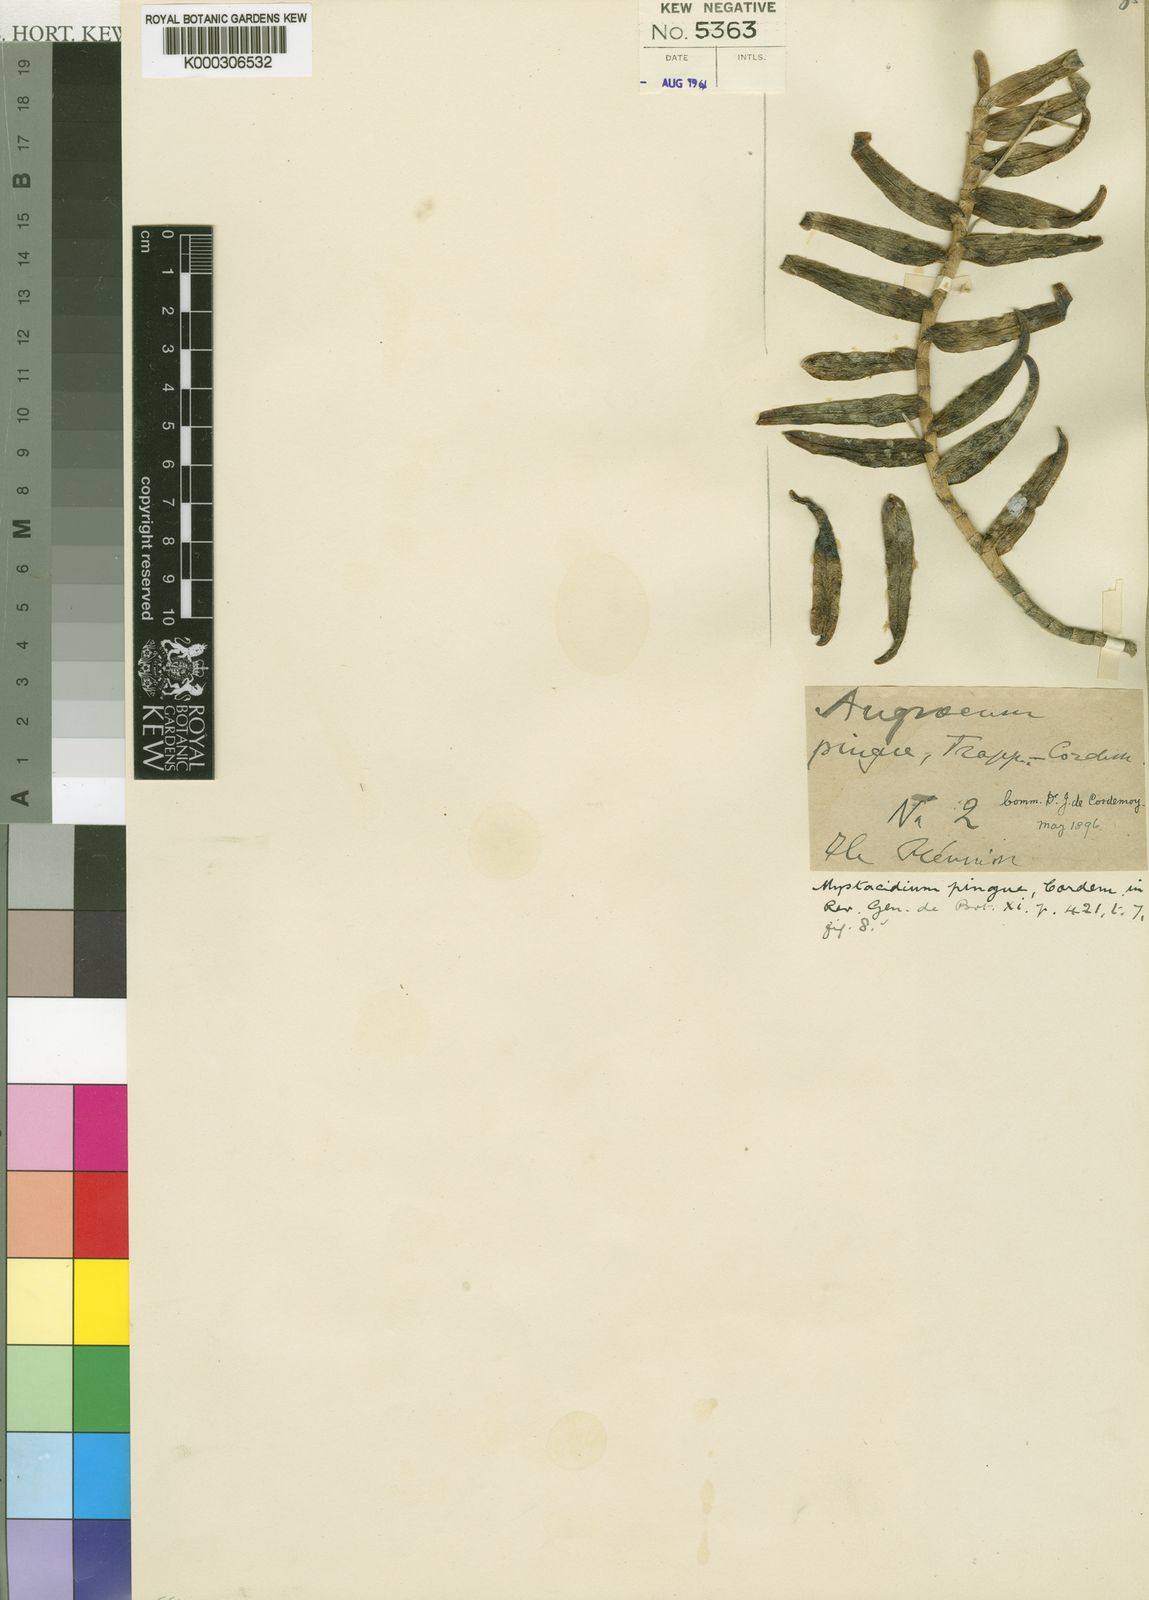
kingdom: Plantae
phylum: Tracheophyta
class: Liliopsida
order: Asparagales
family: Orchidaceae
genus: Angraecum
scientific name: Angraecum pingue
